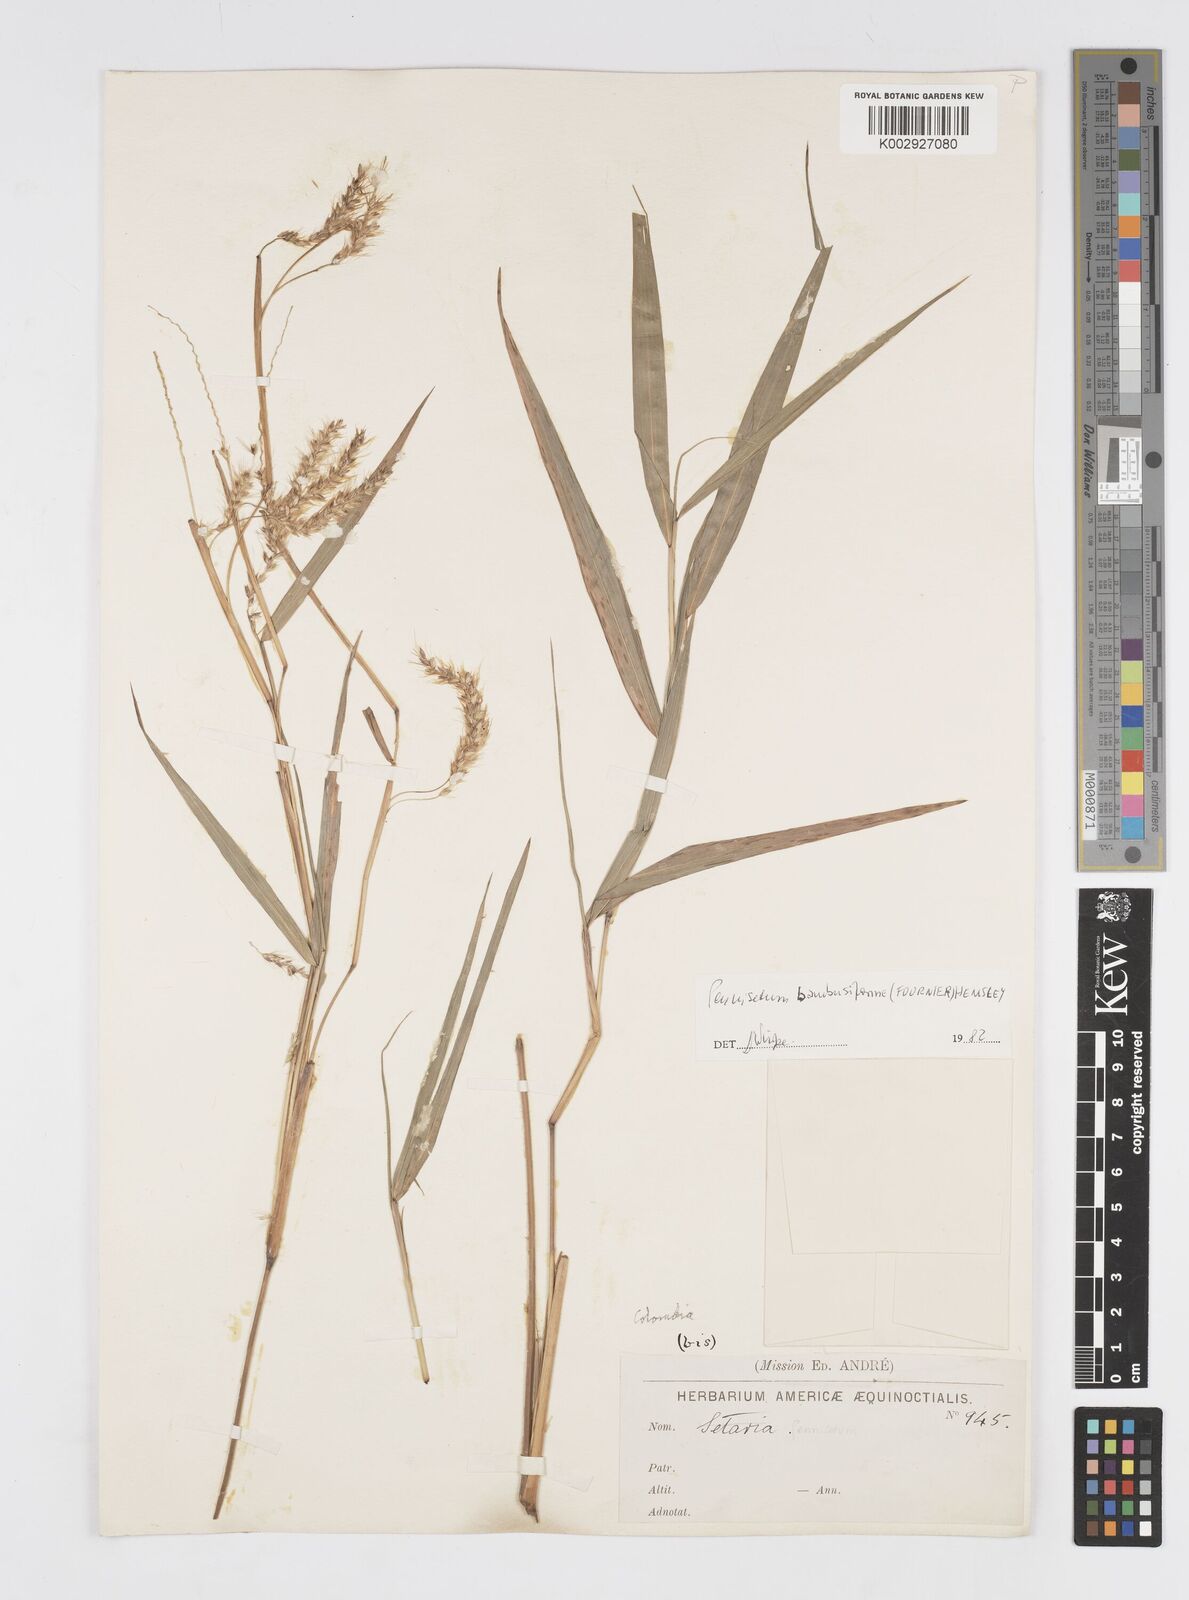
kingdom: Plantae
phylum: Tracheophyta
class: Liliopsida
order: Poales
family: Poaceae
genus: Cenchrus
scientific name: Cenchrus tristachyus
